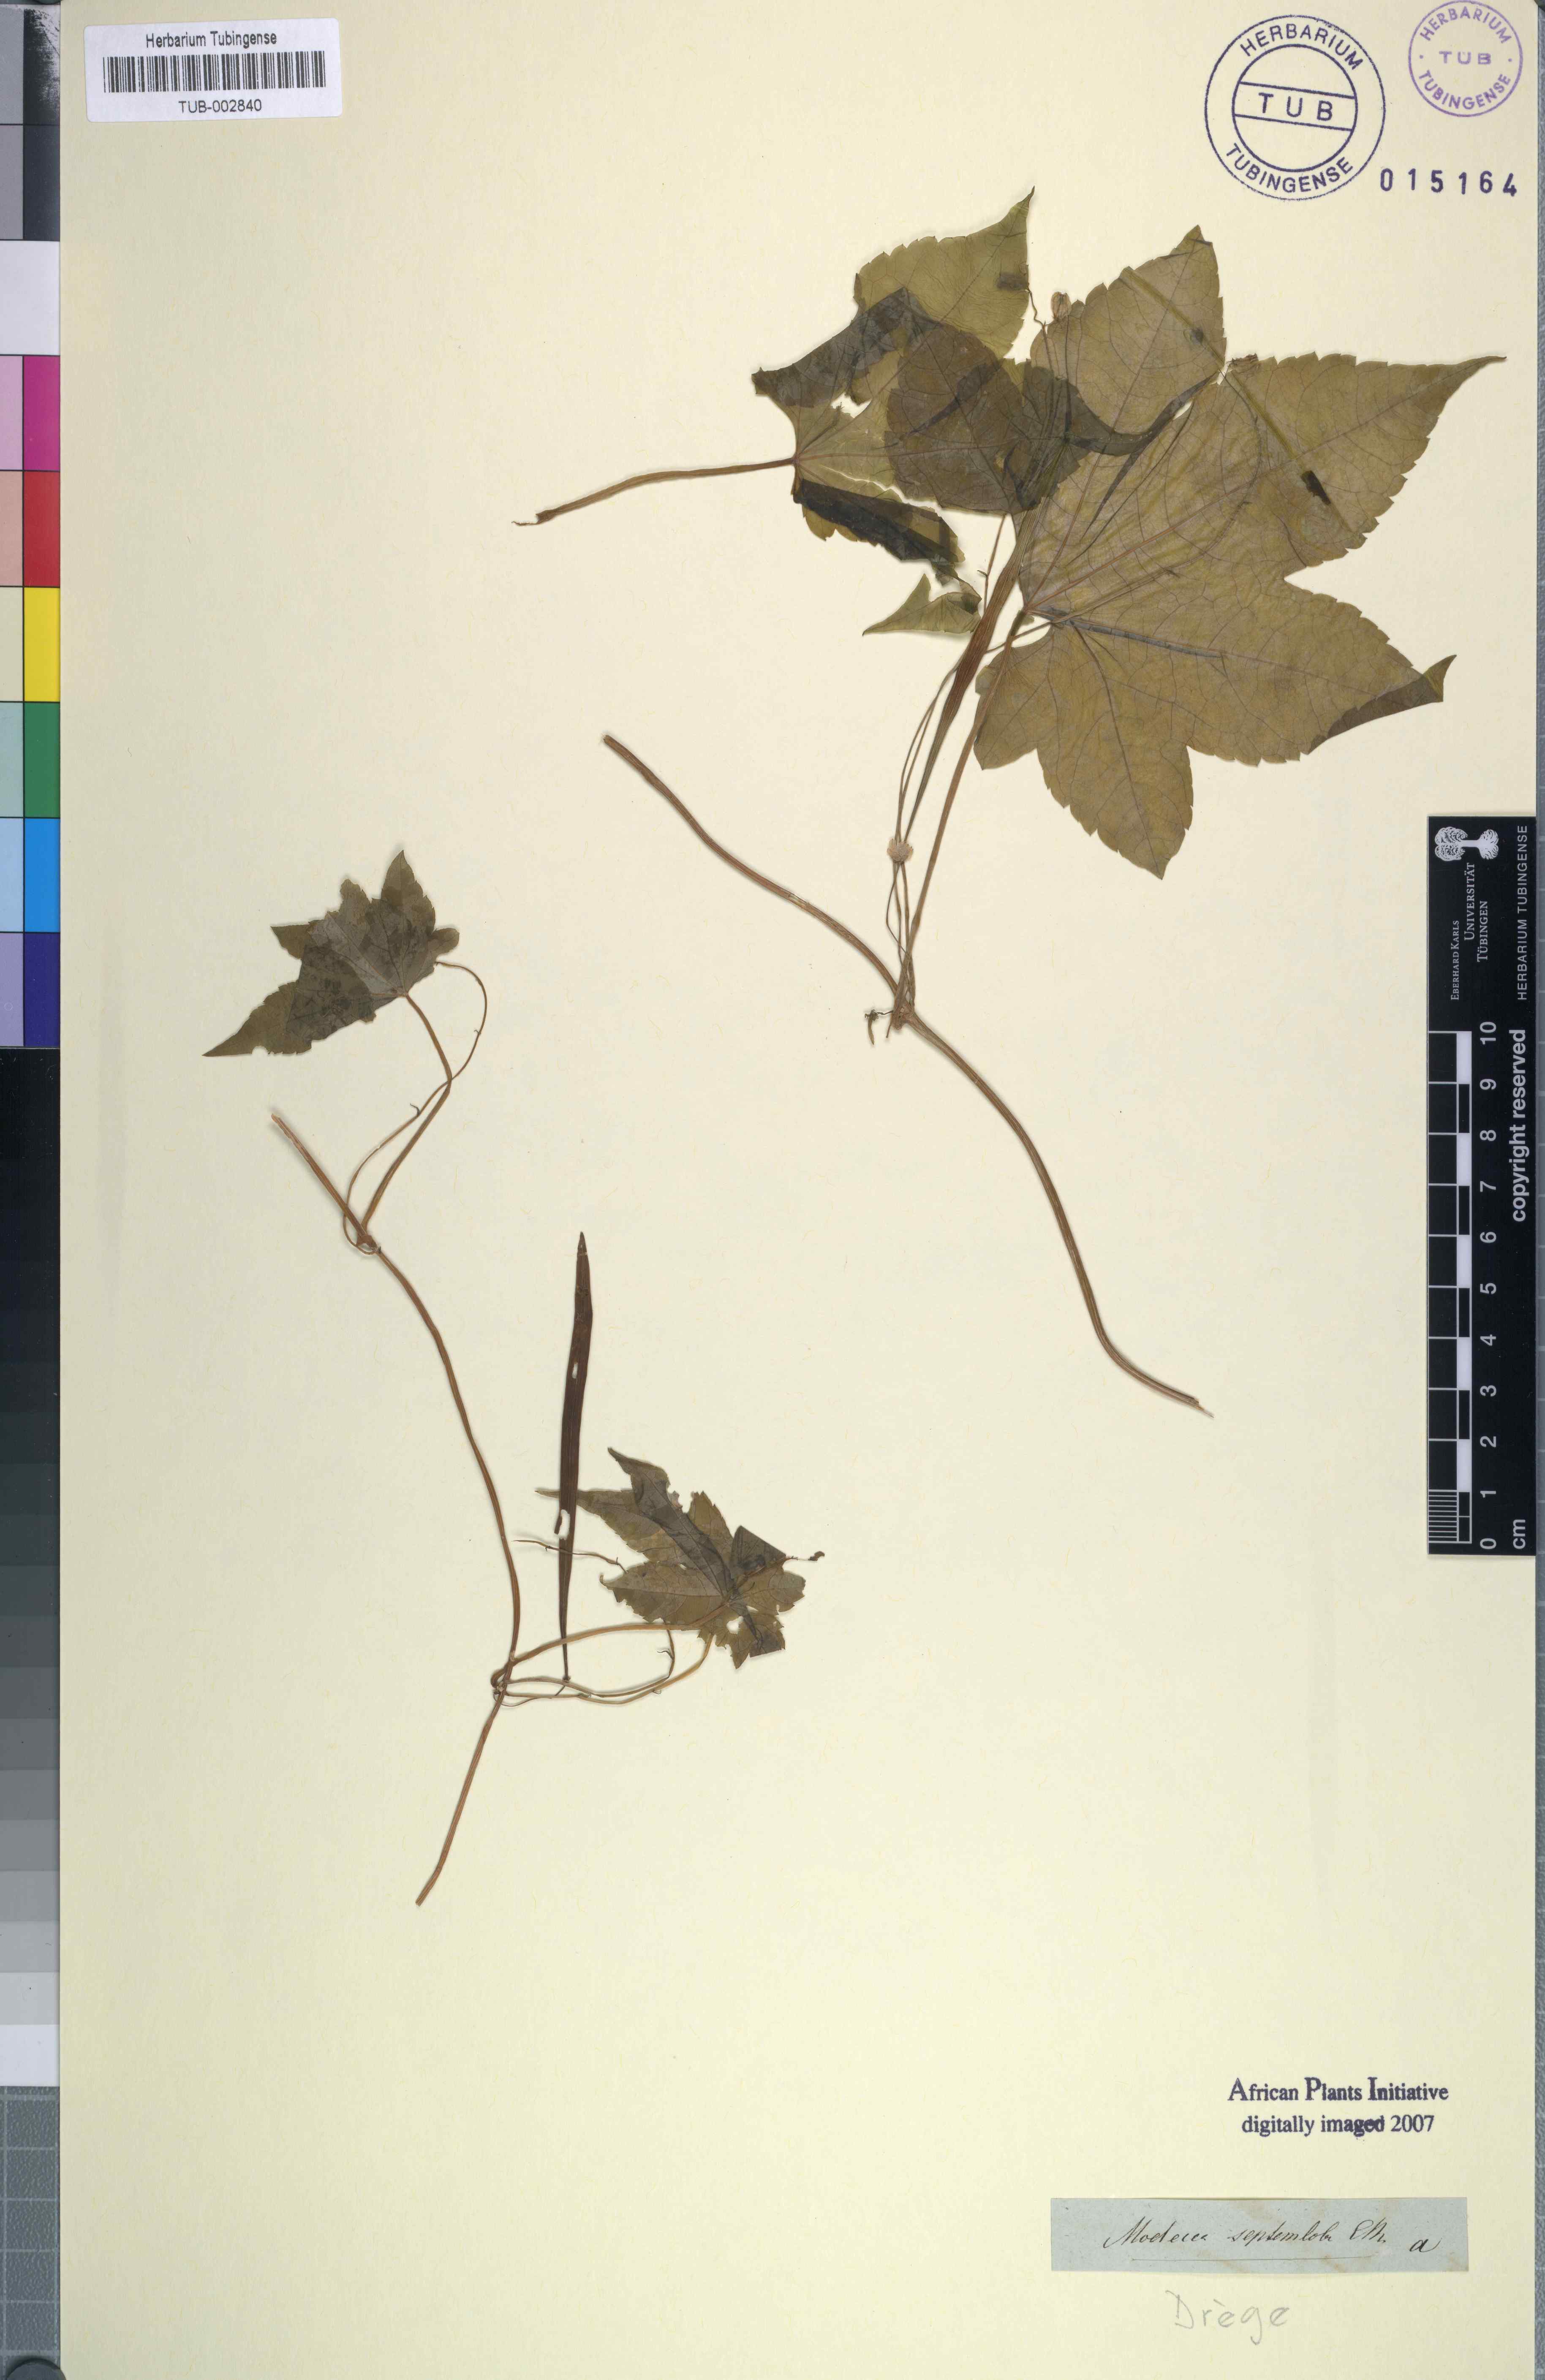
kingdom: Plantae
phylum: Tracheophyta
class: Magnoliopsida
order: Malpighiales
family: Achariaceae
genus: Ceratiosicyos
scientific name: Ceratiosicyos laevis
